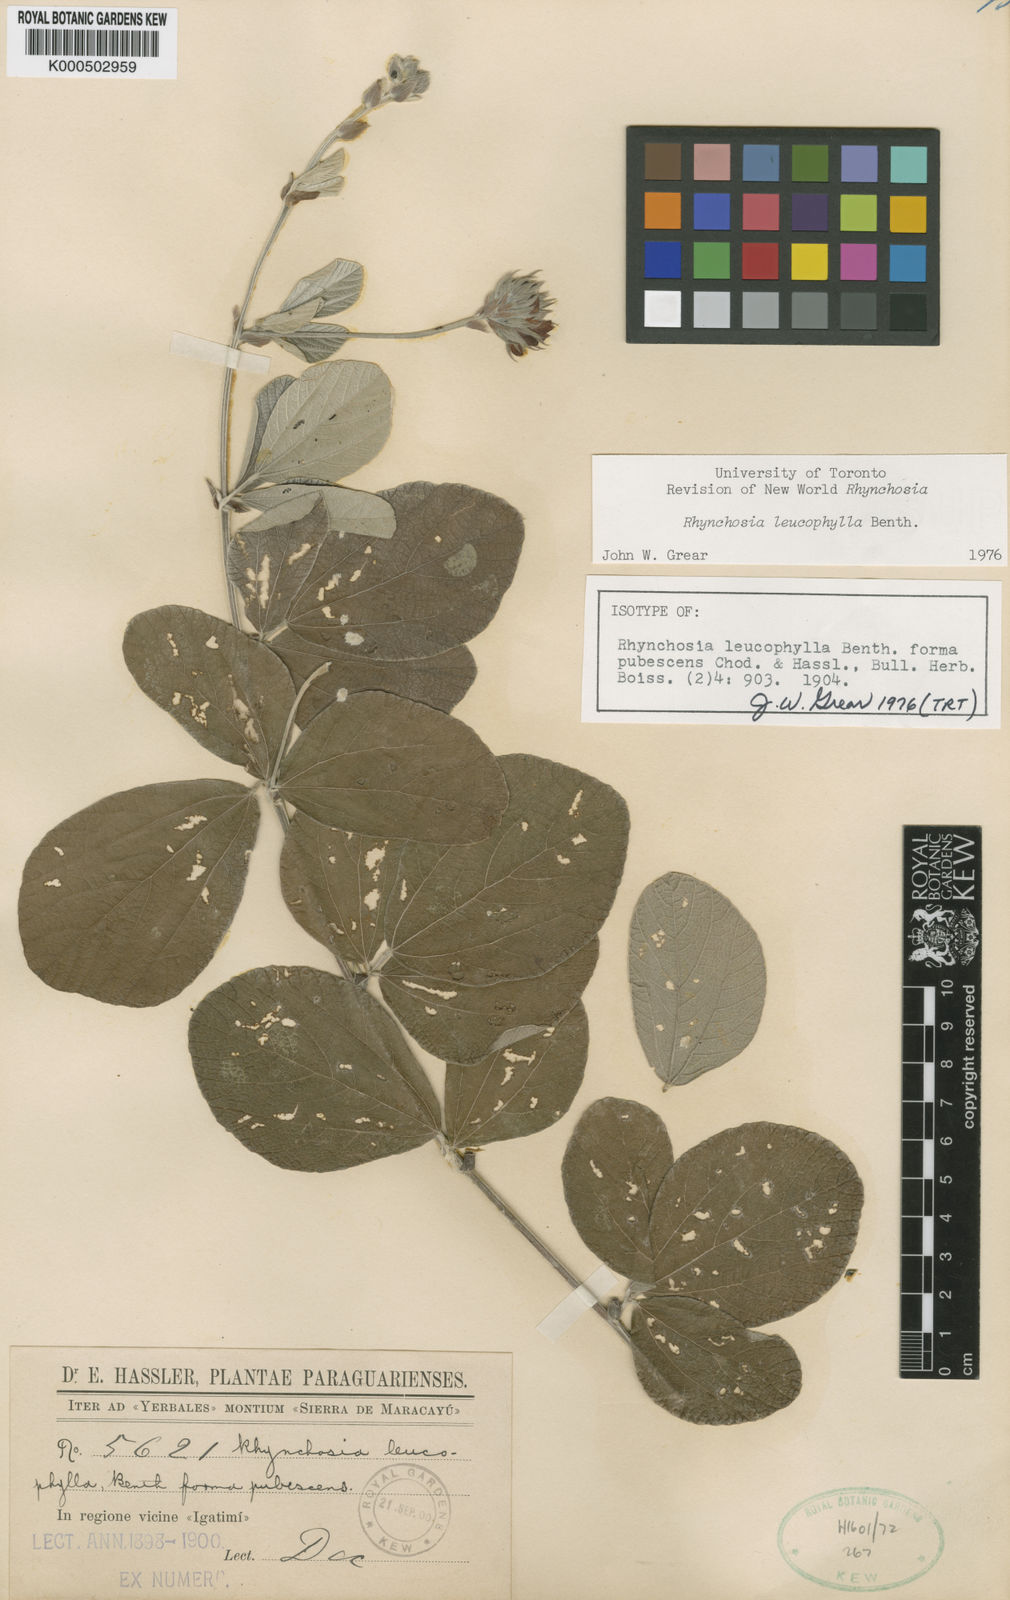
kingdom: Plantae
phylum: Tracheophyta
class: Magnoliopsida
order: Fabales
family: Fabaceae
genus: Rhynchosia
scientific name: Rhynchosia leucophylla
